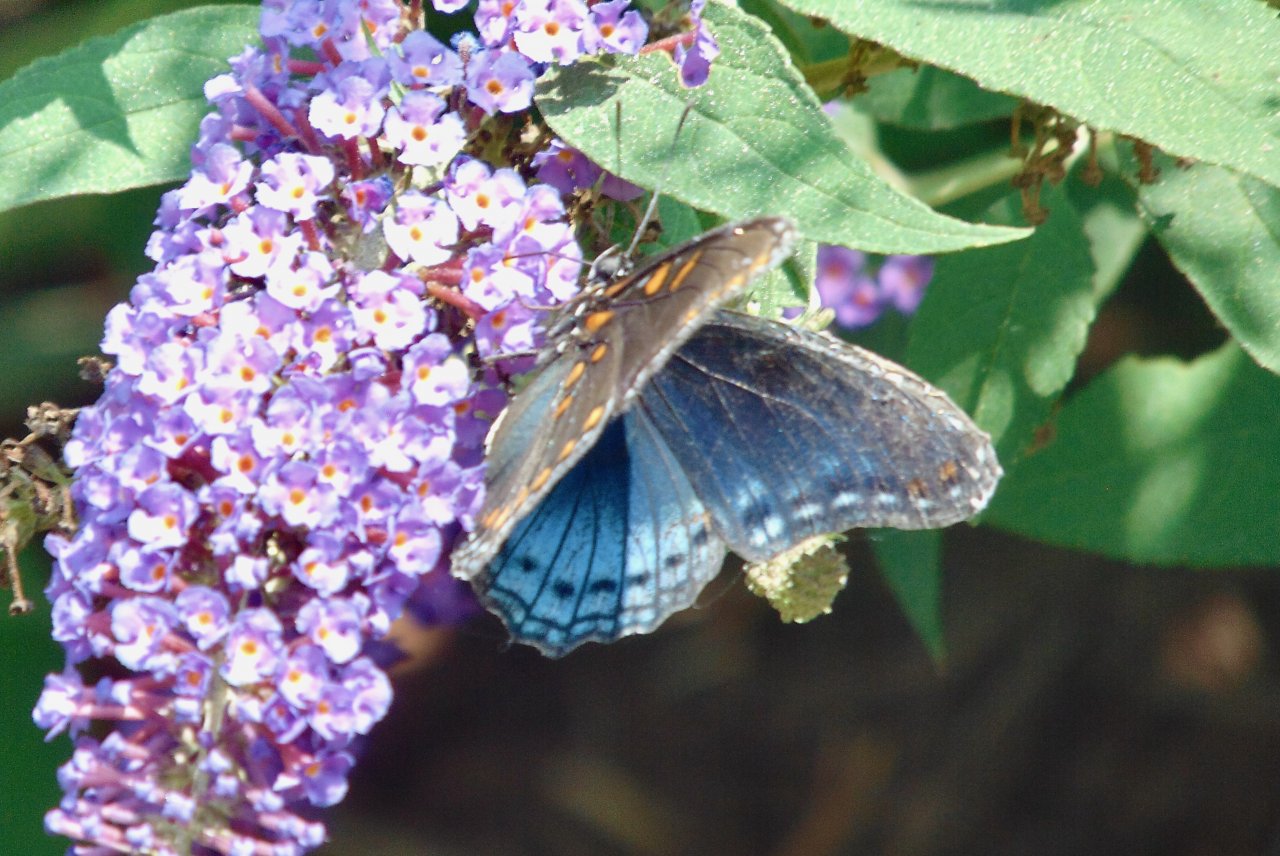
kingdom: Animalia
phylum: Arthropoda
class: Insecta
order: Lepidoptera
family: Nymphalidae
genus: Limenitis
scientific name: Limenitis astyanax
